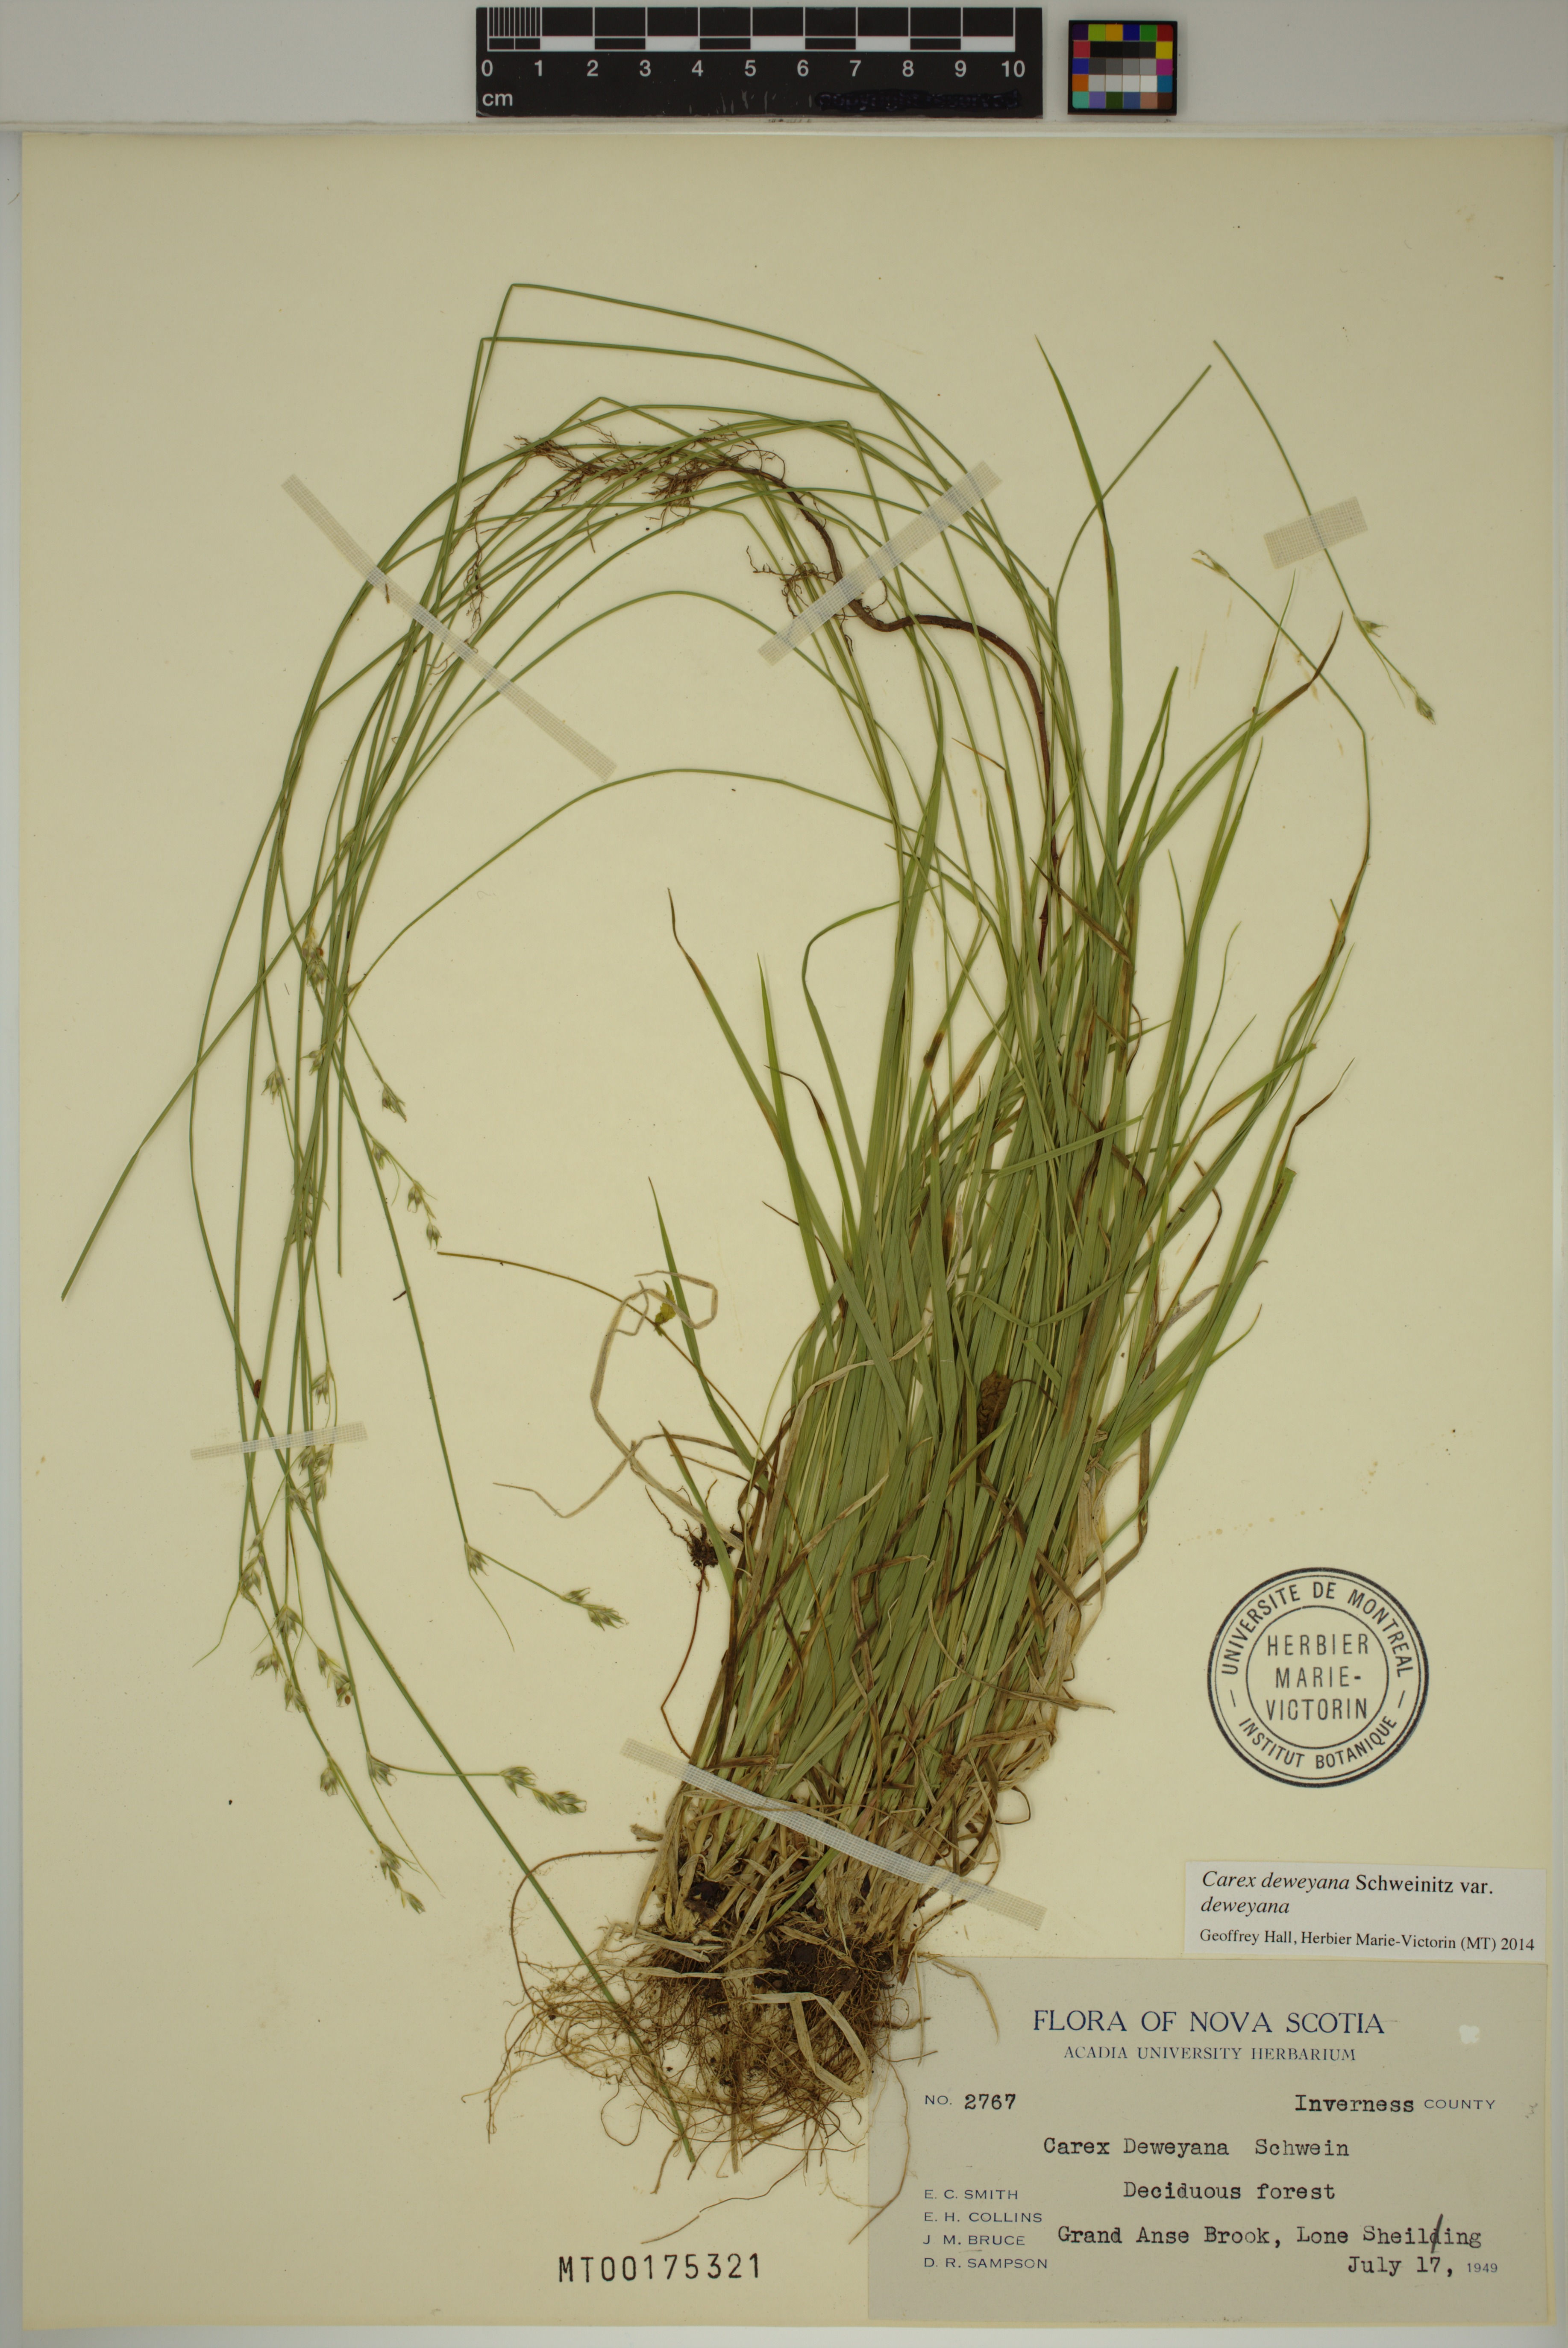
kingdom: Plantae
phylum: Tracheophyta
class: Liliopsida
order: Poales
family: Cyperaceae
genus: Carex
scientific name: Carex deweyana
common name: Dewey's sedge
